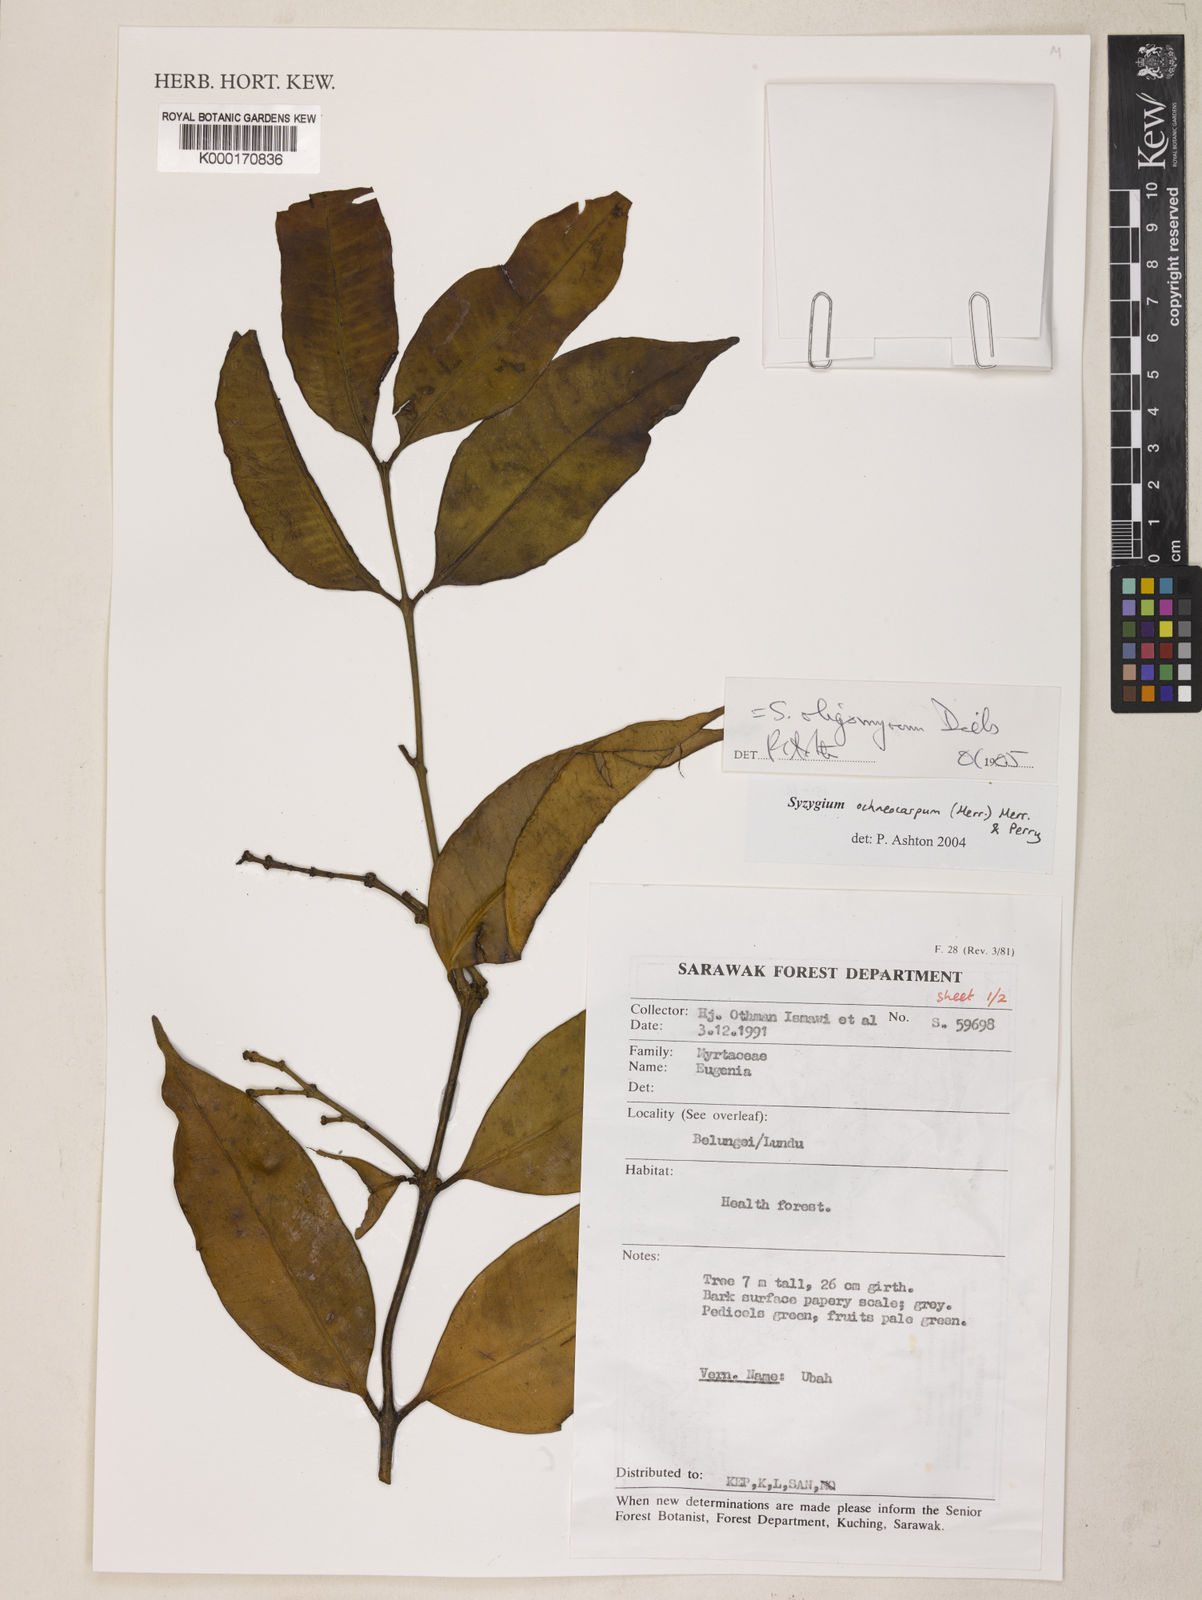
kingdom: Plantae
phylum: Tracheophyta
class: Magnoliopsida
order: Myrtales
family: Myrtaceae
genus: Syzygium
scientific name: Syzygium oligomyrum
